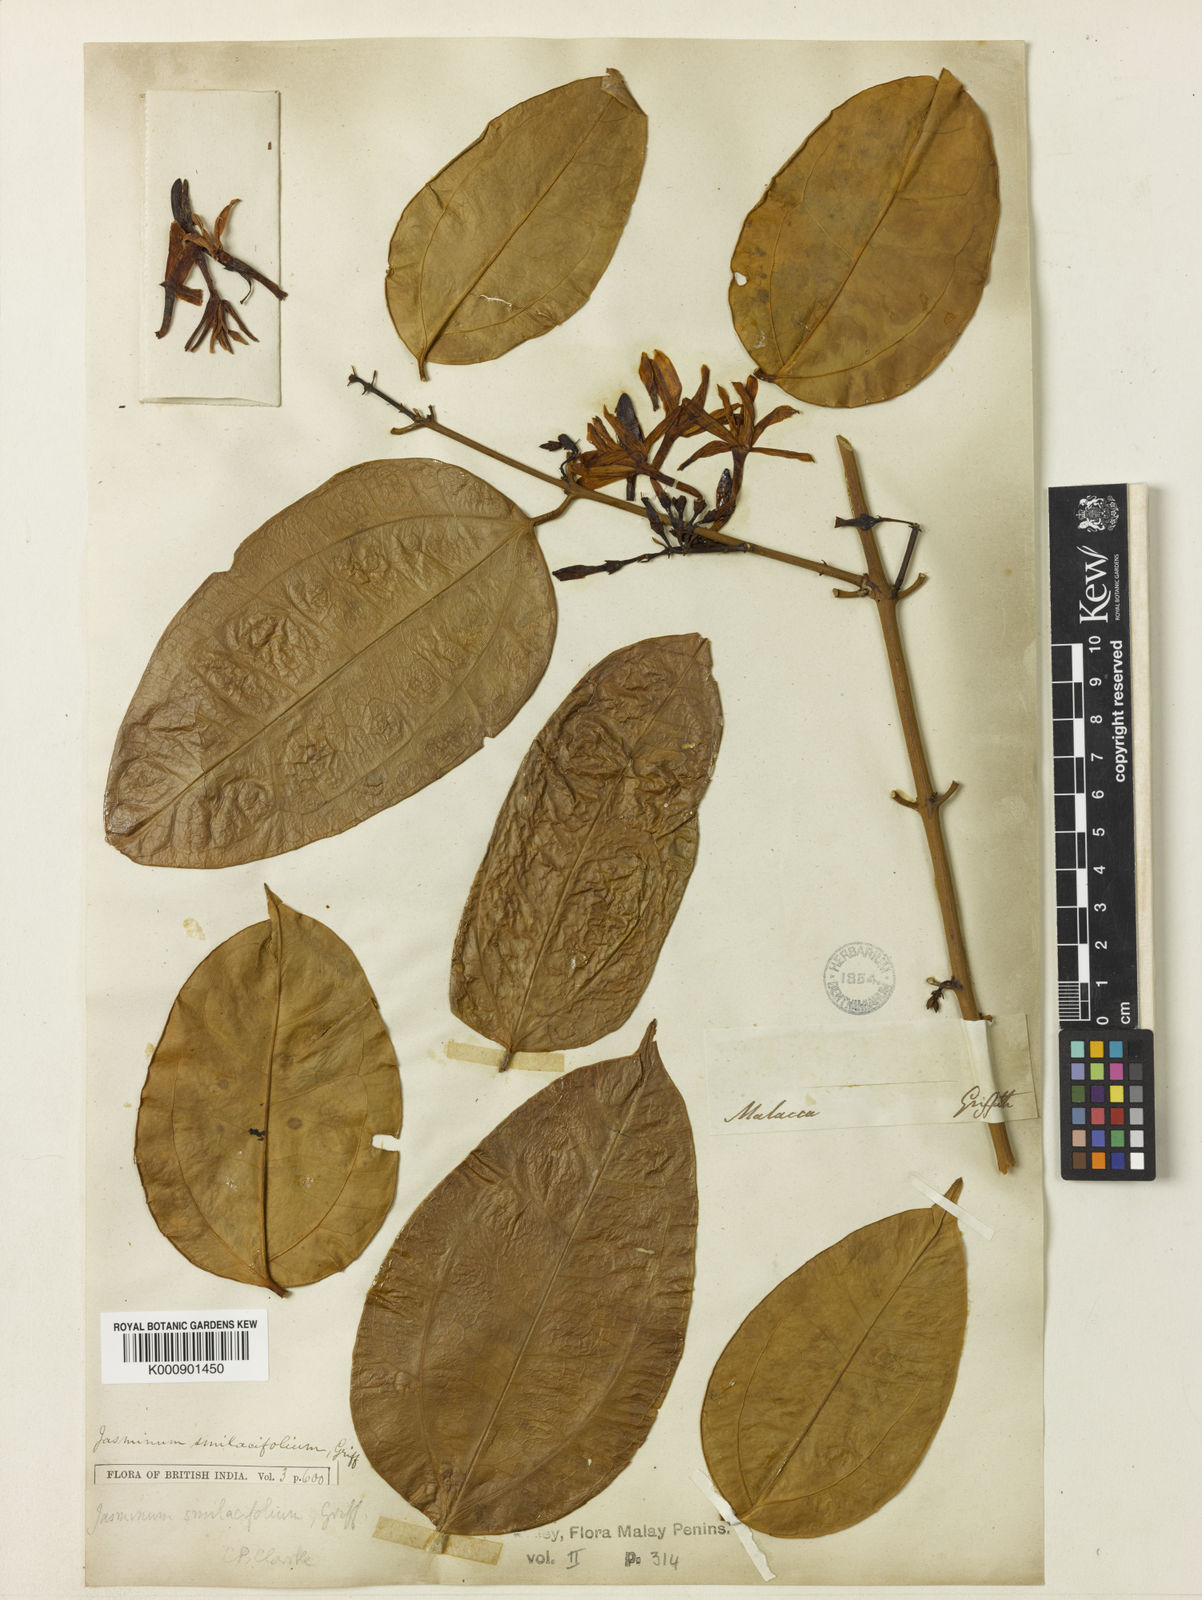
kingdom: Plantae
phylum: Tracheophyta
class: Magnoliopsida
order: Lamiales
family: Oleaceae
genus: Jasminum
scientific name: Jasminum smilacifolium
